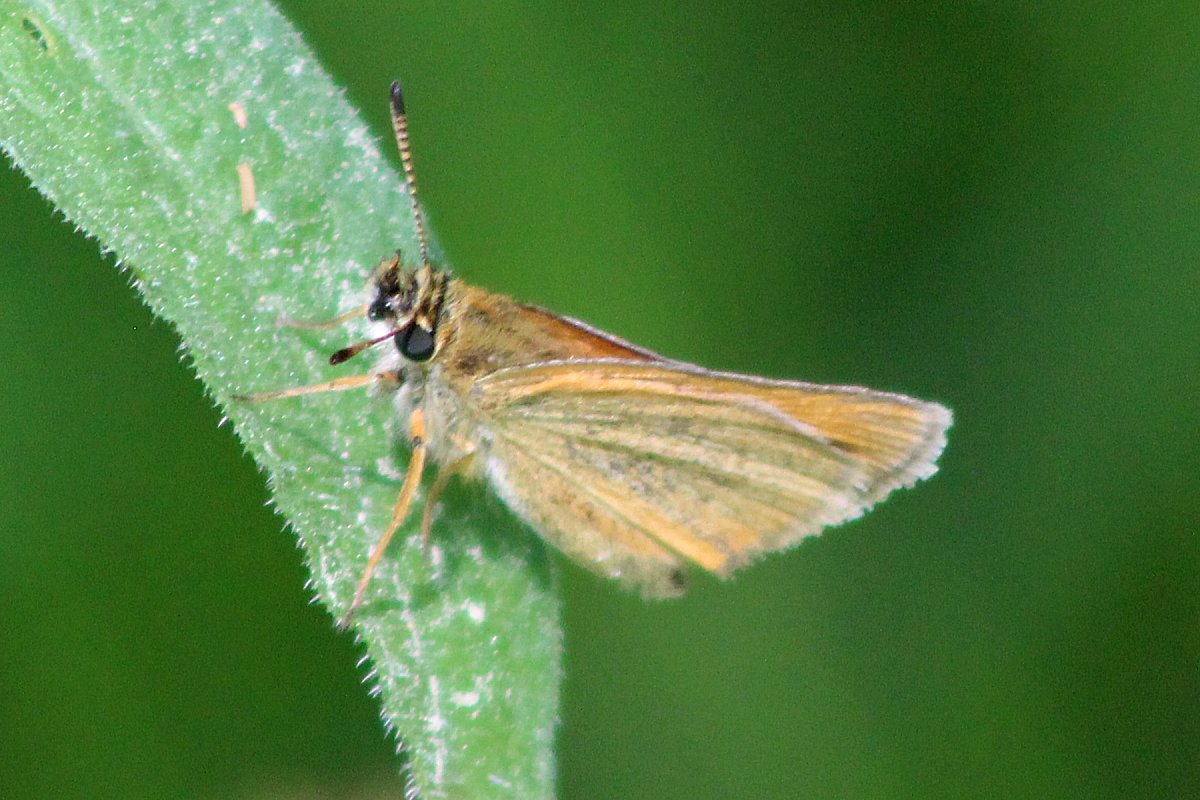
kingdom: Animalia
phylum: Arthropoda
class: Insecta
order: Lepidoptera
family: Hesperiidae
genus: Thymelicus
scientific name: Thymelicus lineola
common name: European Skipper
